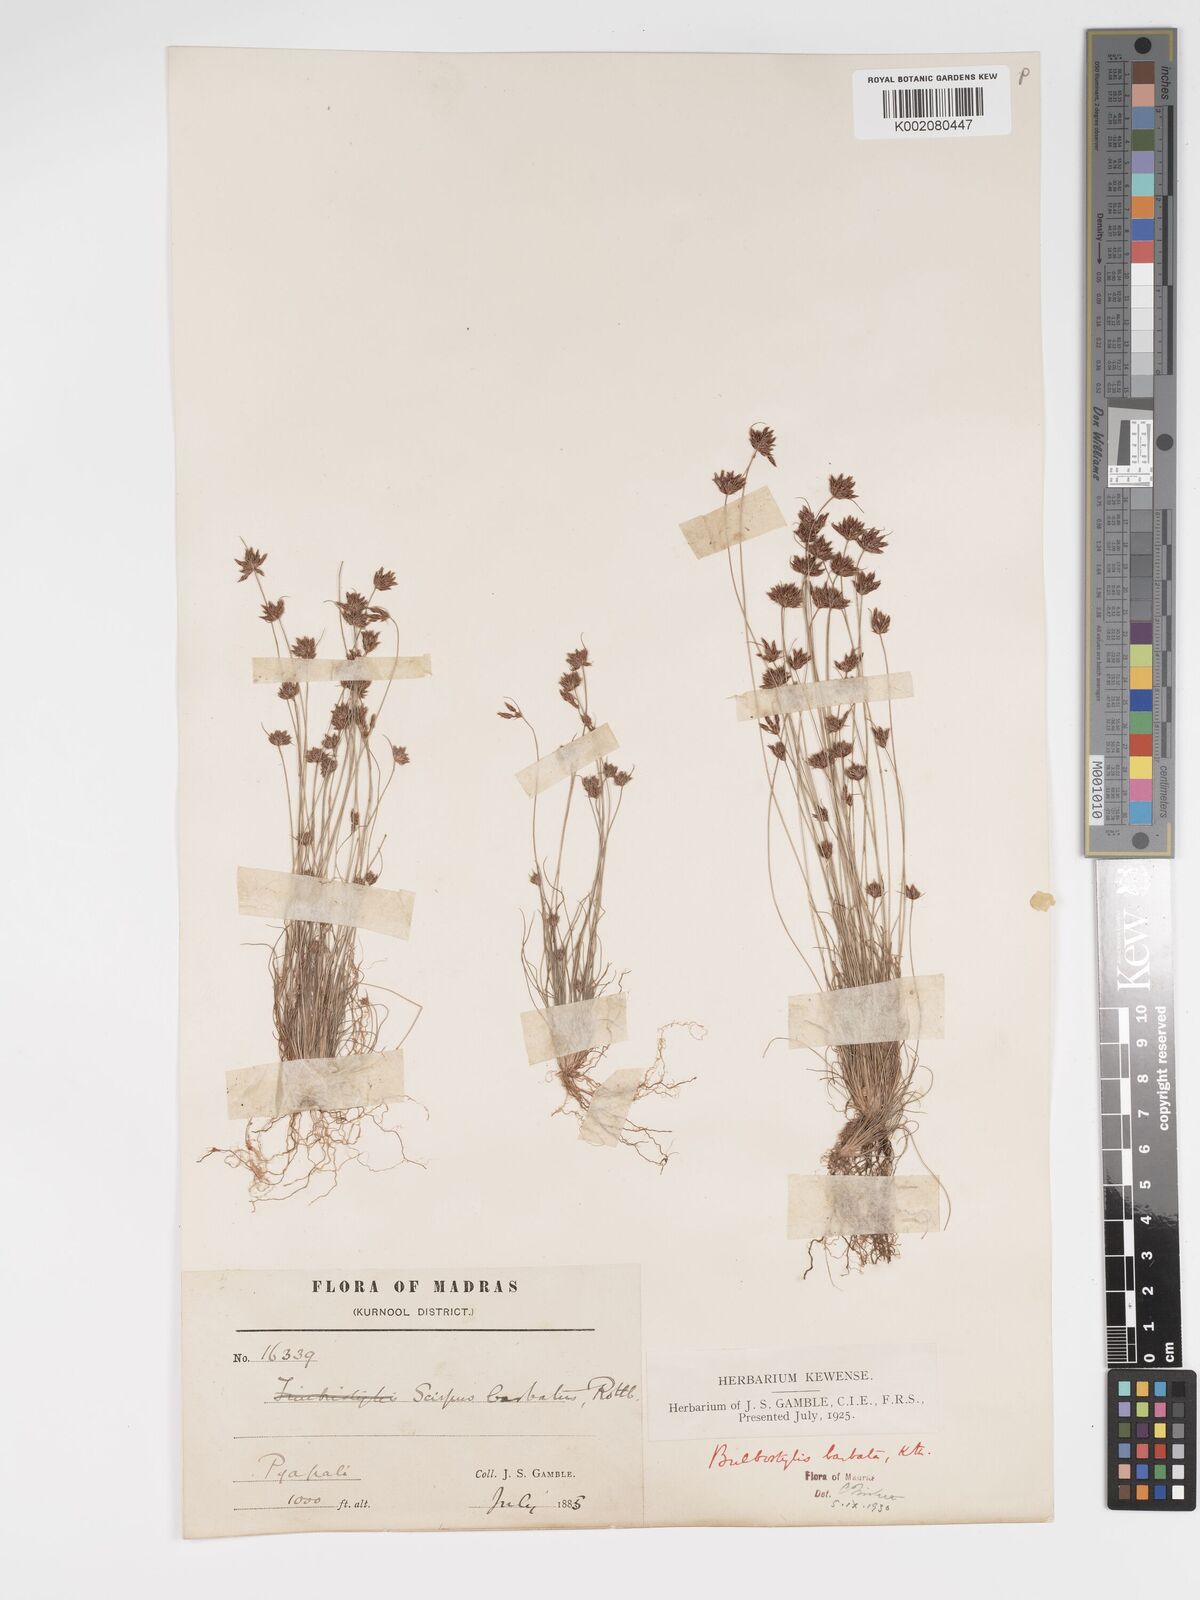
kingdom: Plantae
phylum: Tracheophyta
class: Liliopsida
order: Poales
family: Cyperaceae
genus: Bulbostylis
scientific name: Bulbostylis barbata
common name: Watergrass
